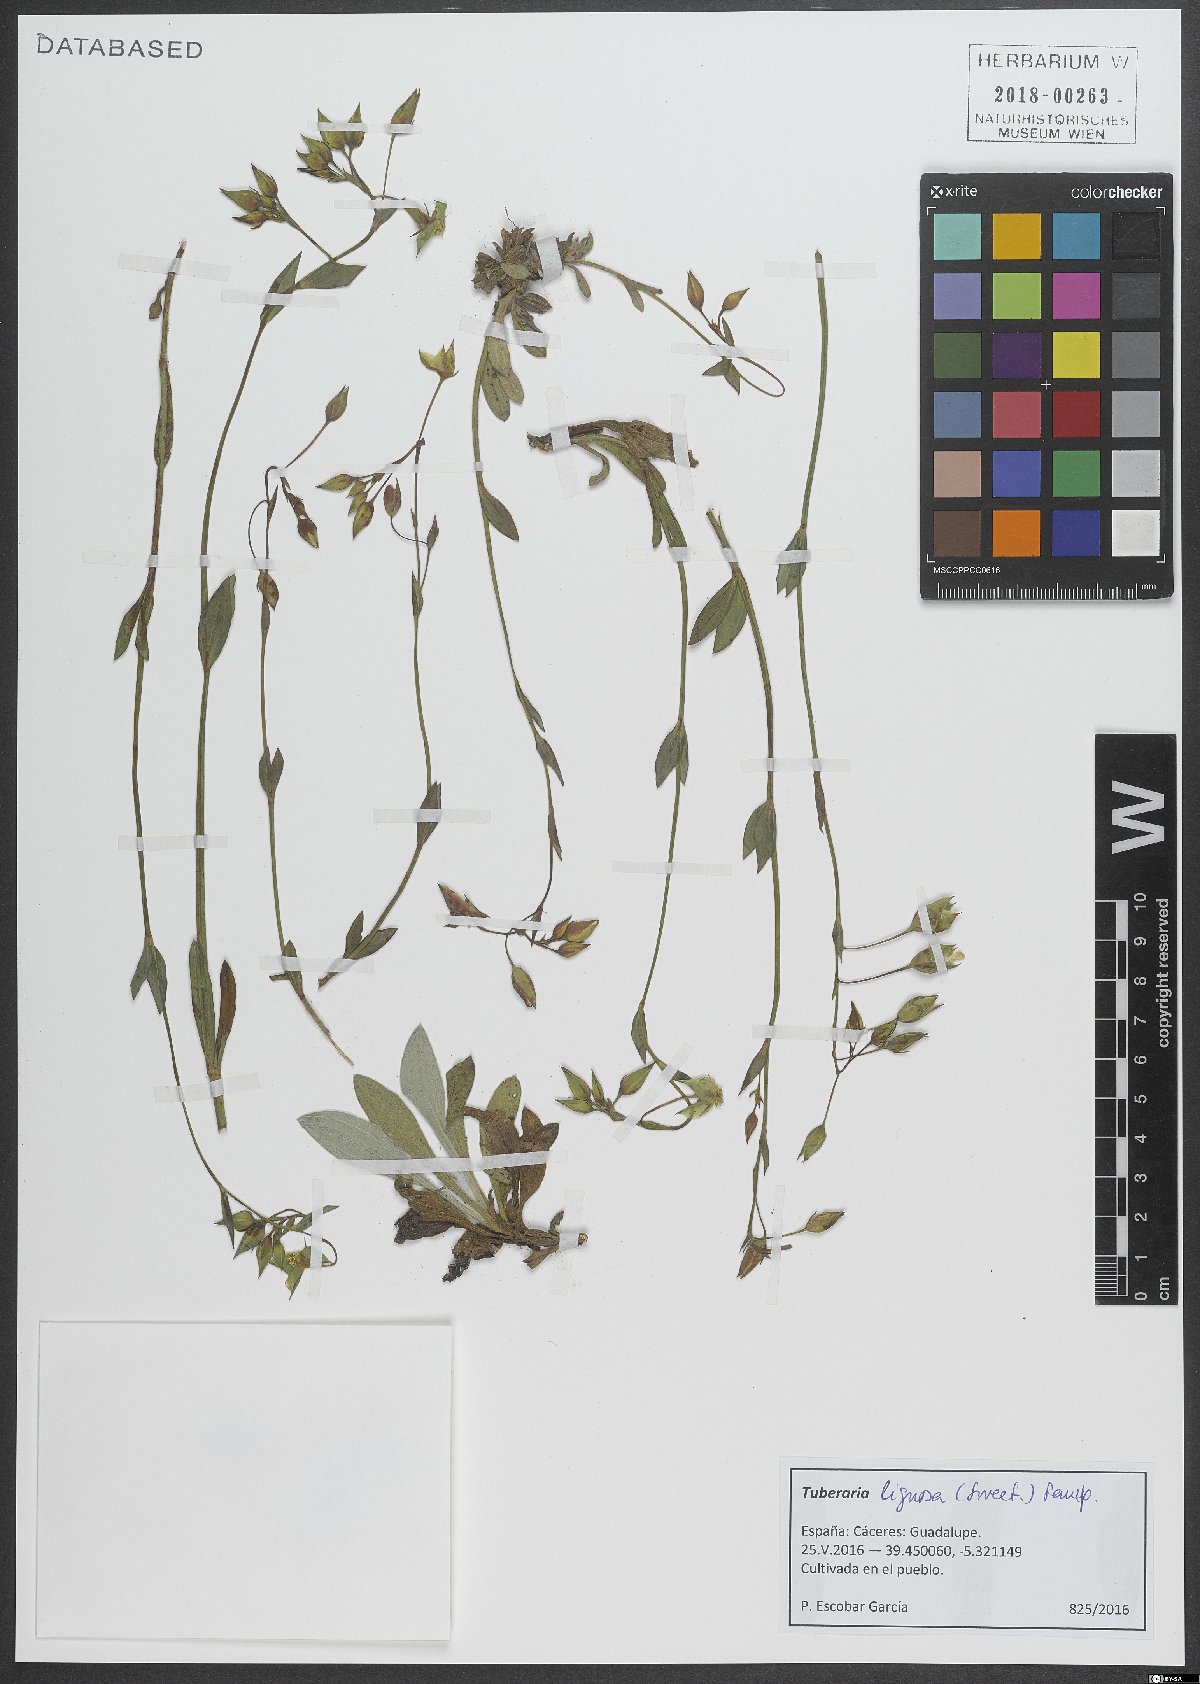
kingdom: Plantae
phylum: Tracheophyta
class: Magnoliopsida
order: Malvales
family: Cistaceae
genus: Tuberaria
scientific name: Tuberaria lignosa
